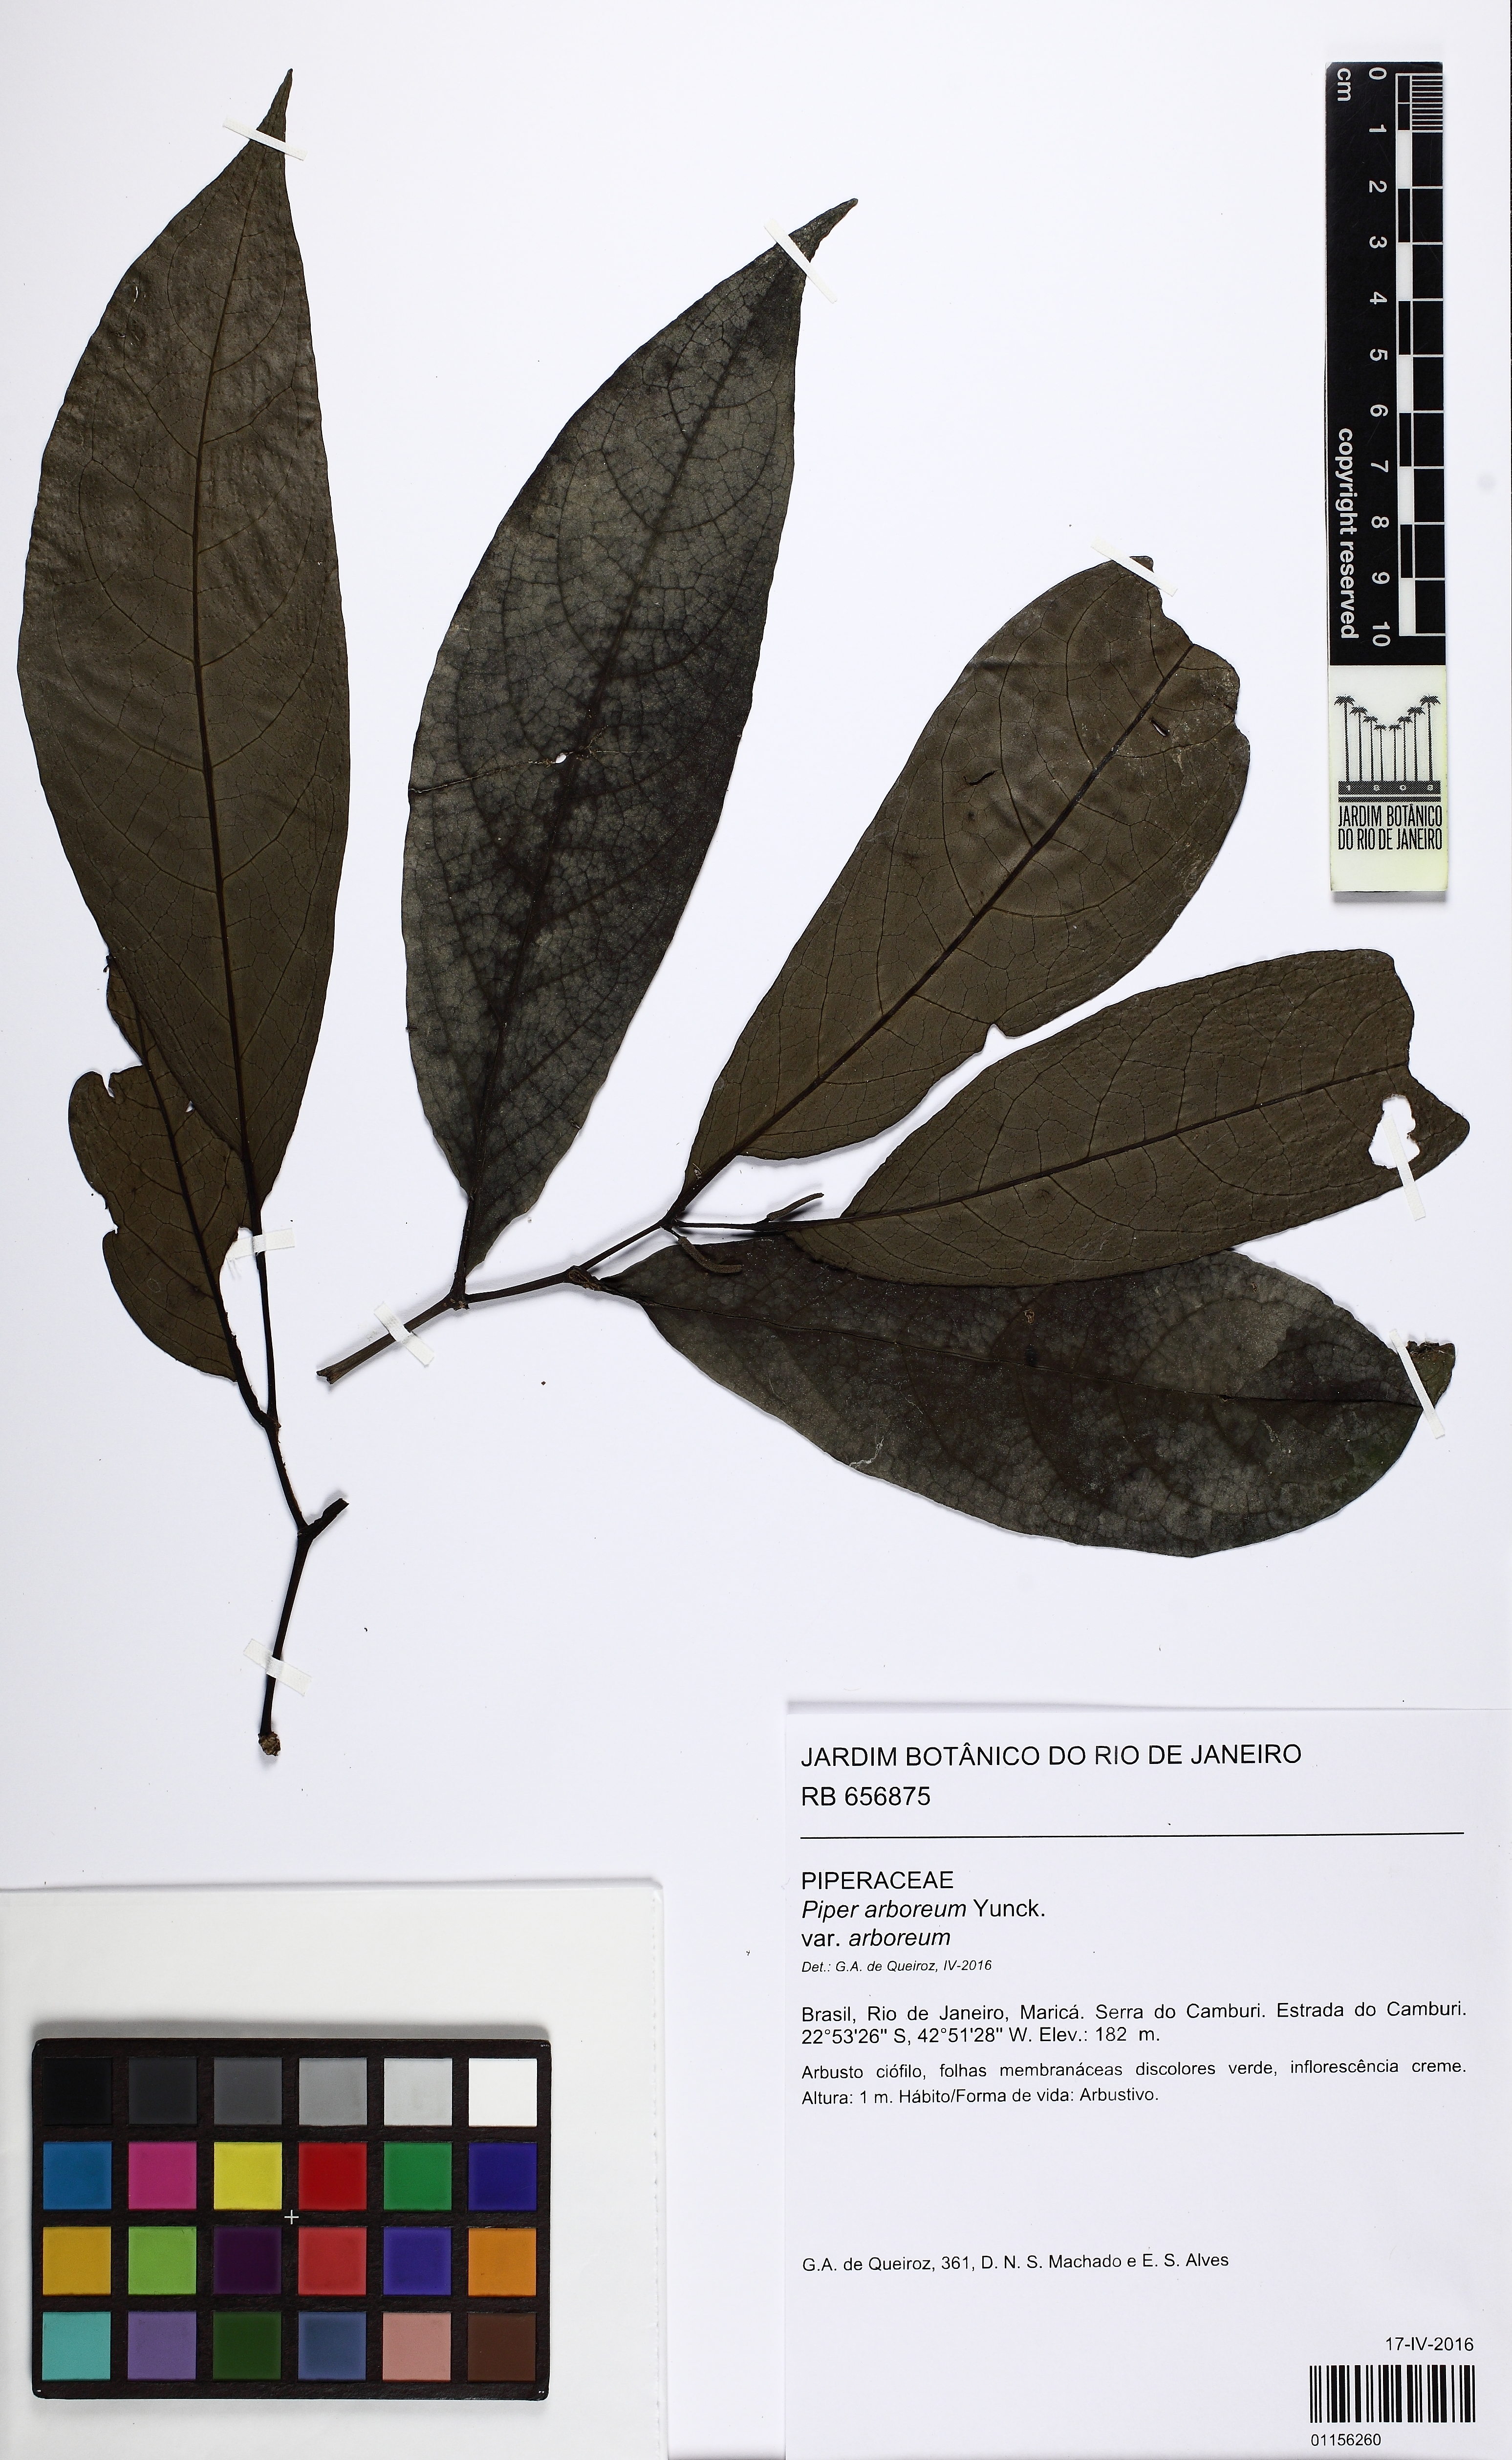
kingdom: Plantae
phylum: Tracheophyta
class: Magnoliopsida
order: Piperales
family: Piperaceae
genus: Piper
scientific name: Piper arboreum
